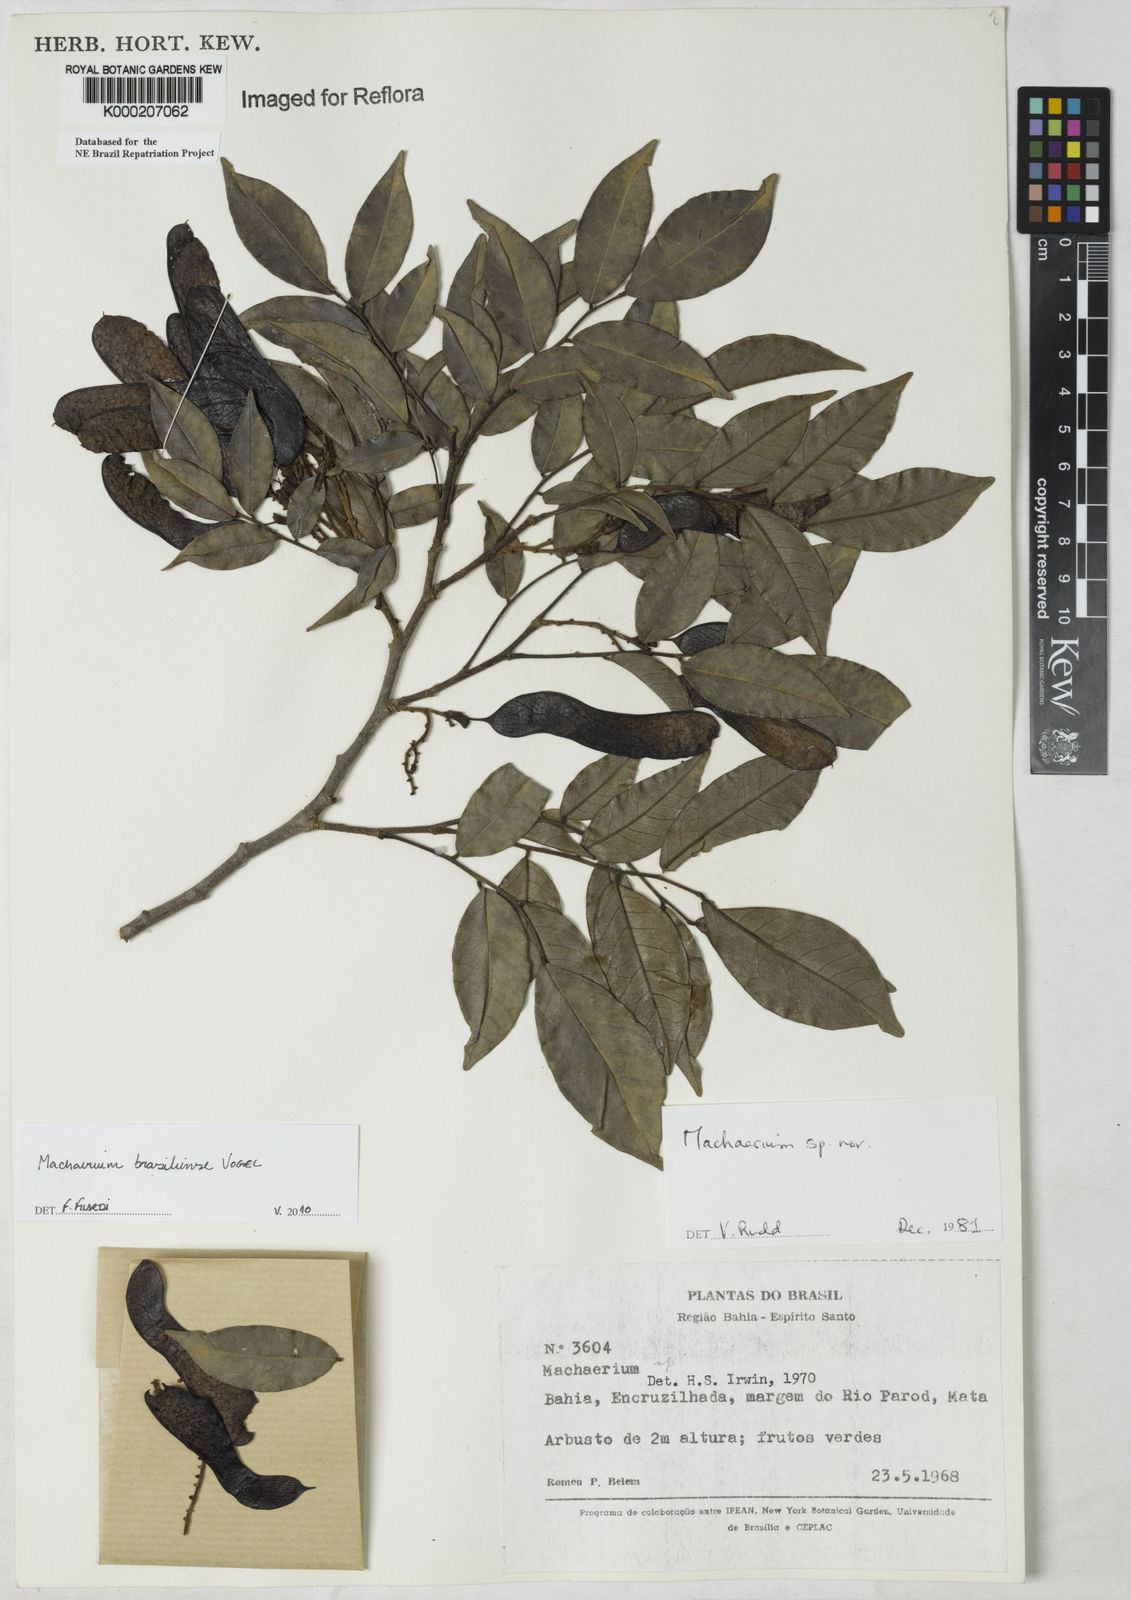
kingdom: Plantae
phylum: Tracheophyta
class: Magnoliopsida
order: Fabales
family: Fabaceae
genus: Machaerium
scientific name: Machaerium
